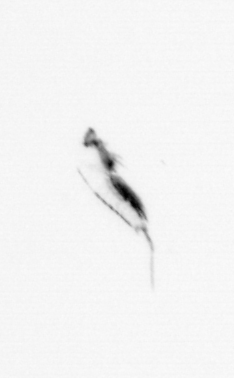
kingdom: Animalia
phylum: Arthropoda
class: Copepoda
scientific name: Copepoda
